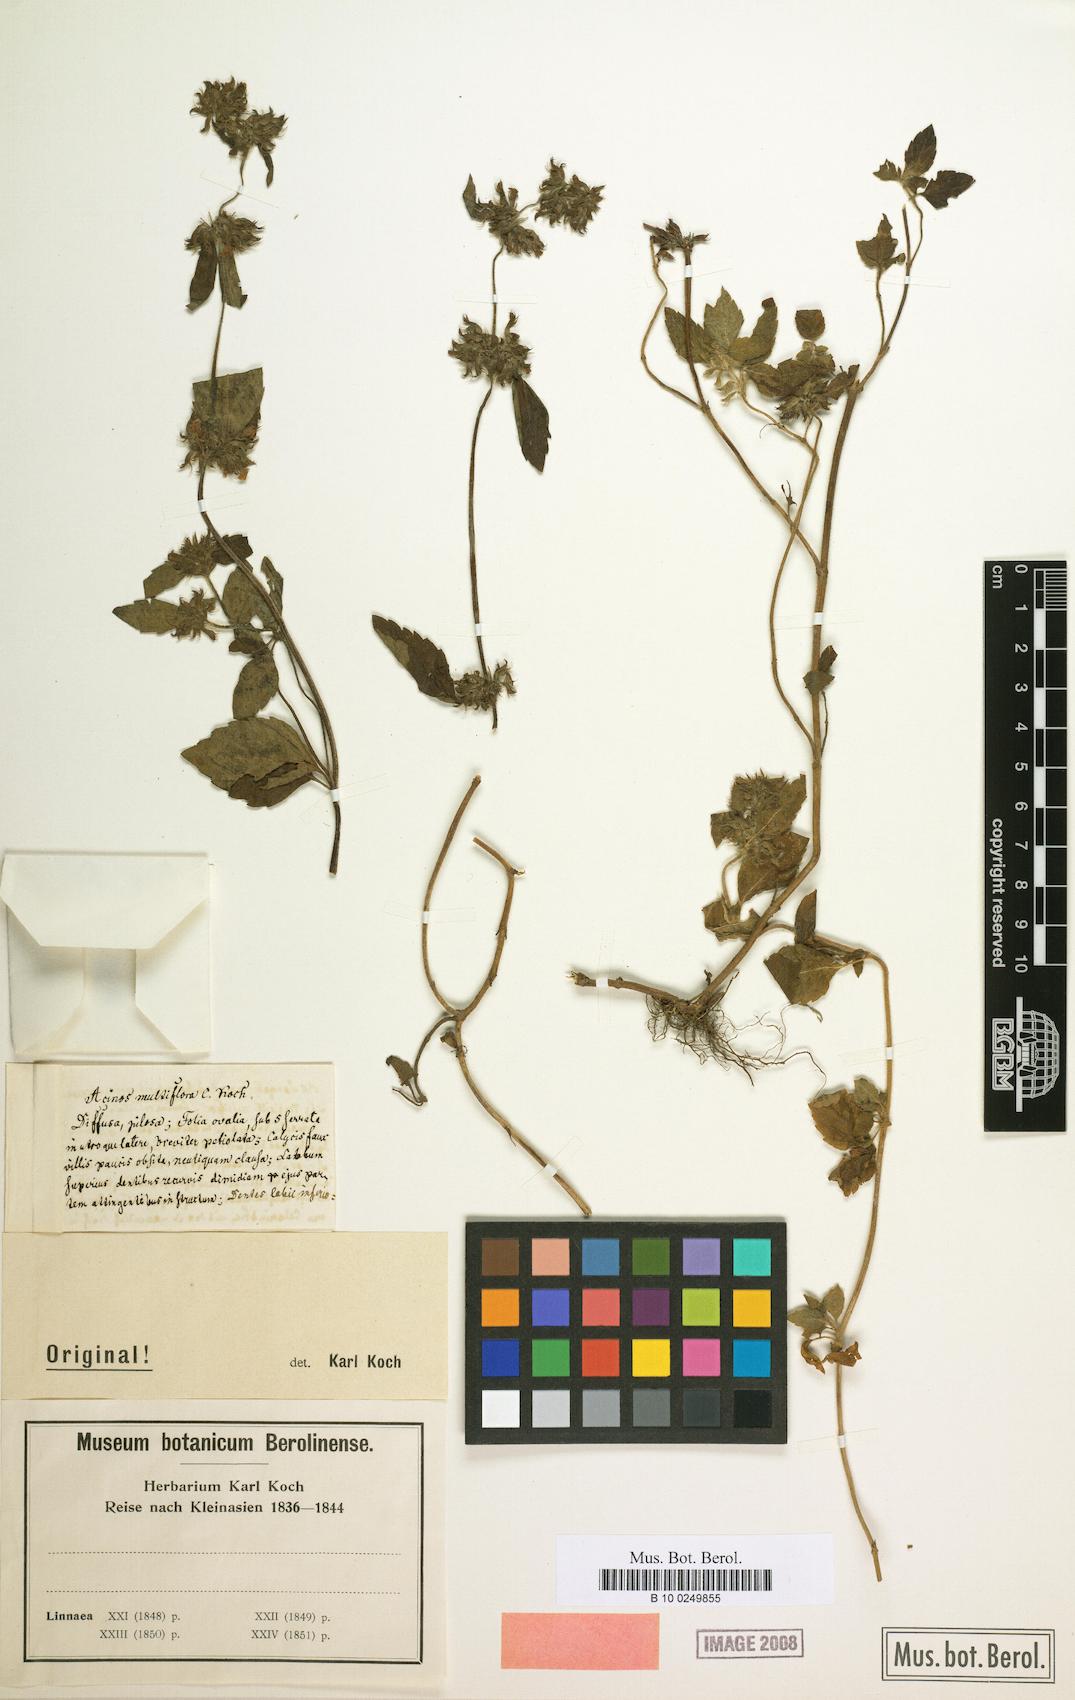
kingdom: Plantae
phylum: Tracheophyta
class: Magnoliopsida
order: Lamiales
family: Lamiaceae
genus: Clinopodium
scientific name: Clinopodium Acinos multiflorus
